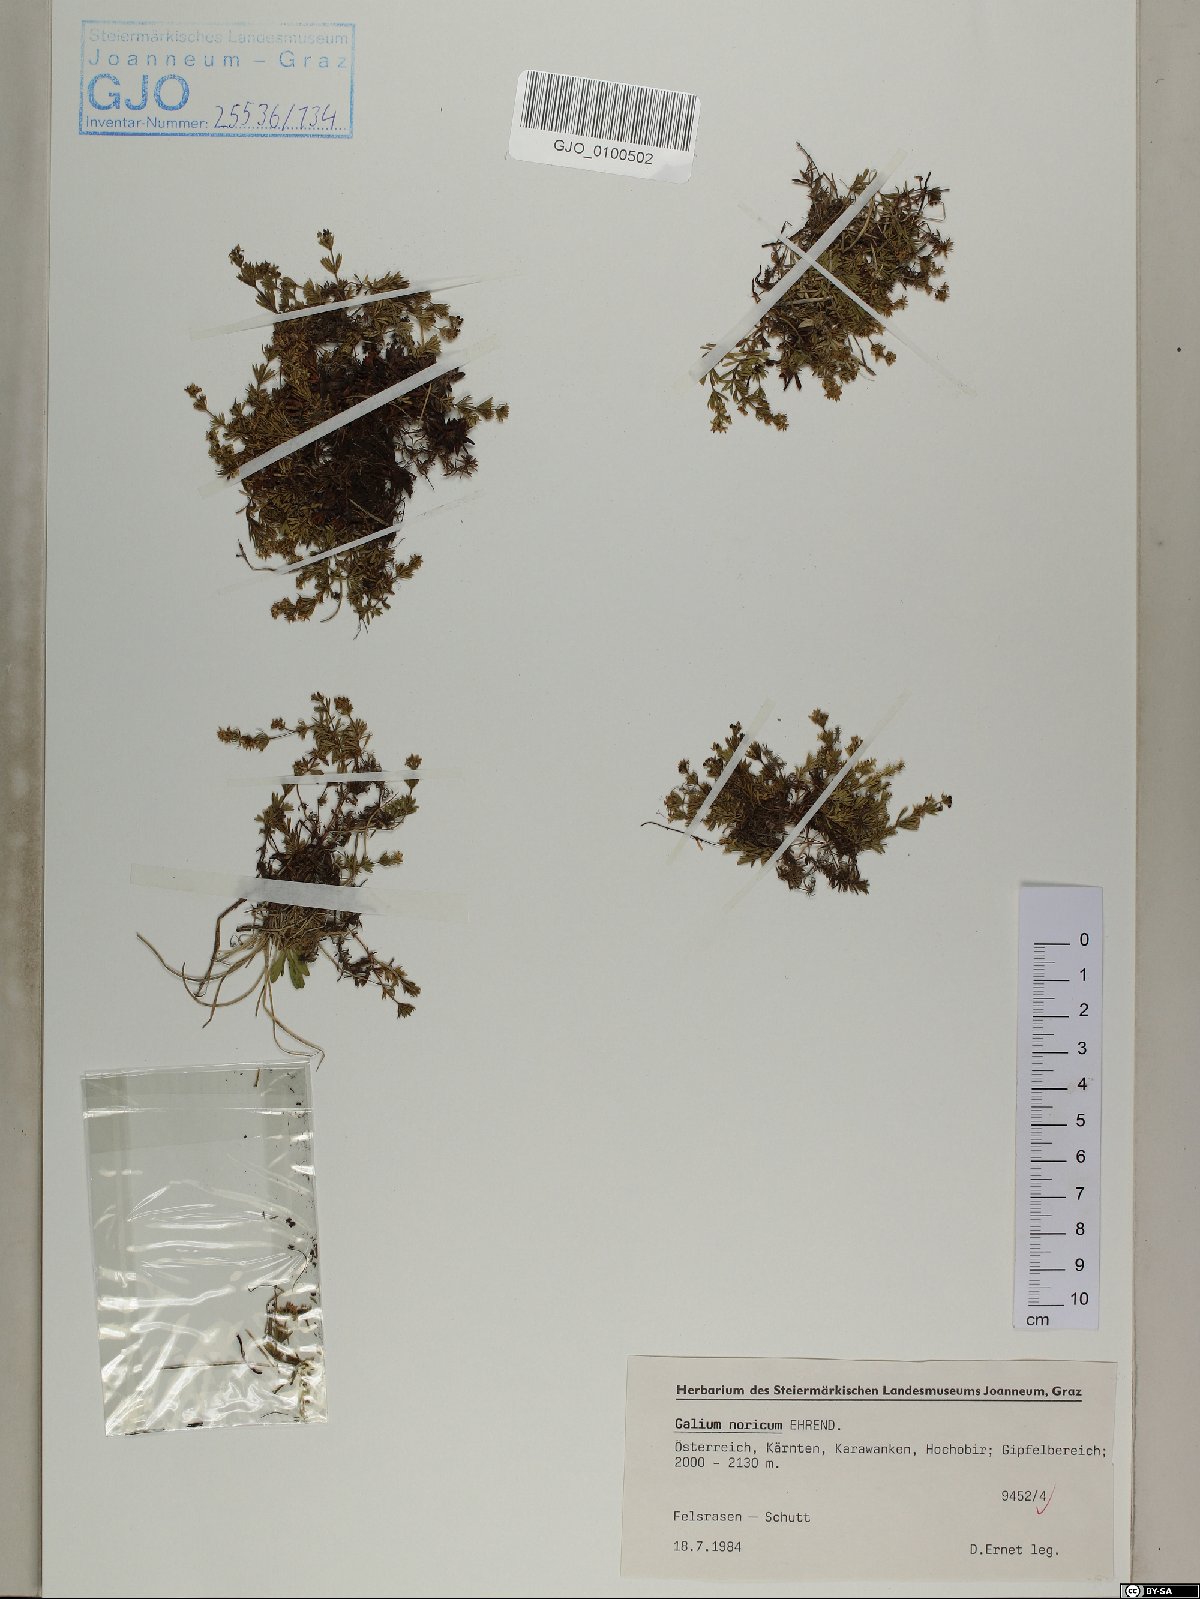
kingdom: Plantae
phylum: Tracheophyta
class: Magnoliopsida
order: Gentianales
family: Rubiaceae
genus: Galium
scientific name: Galium noricum
